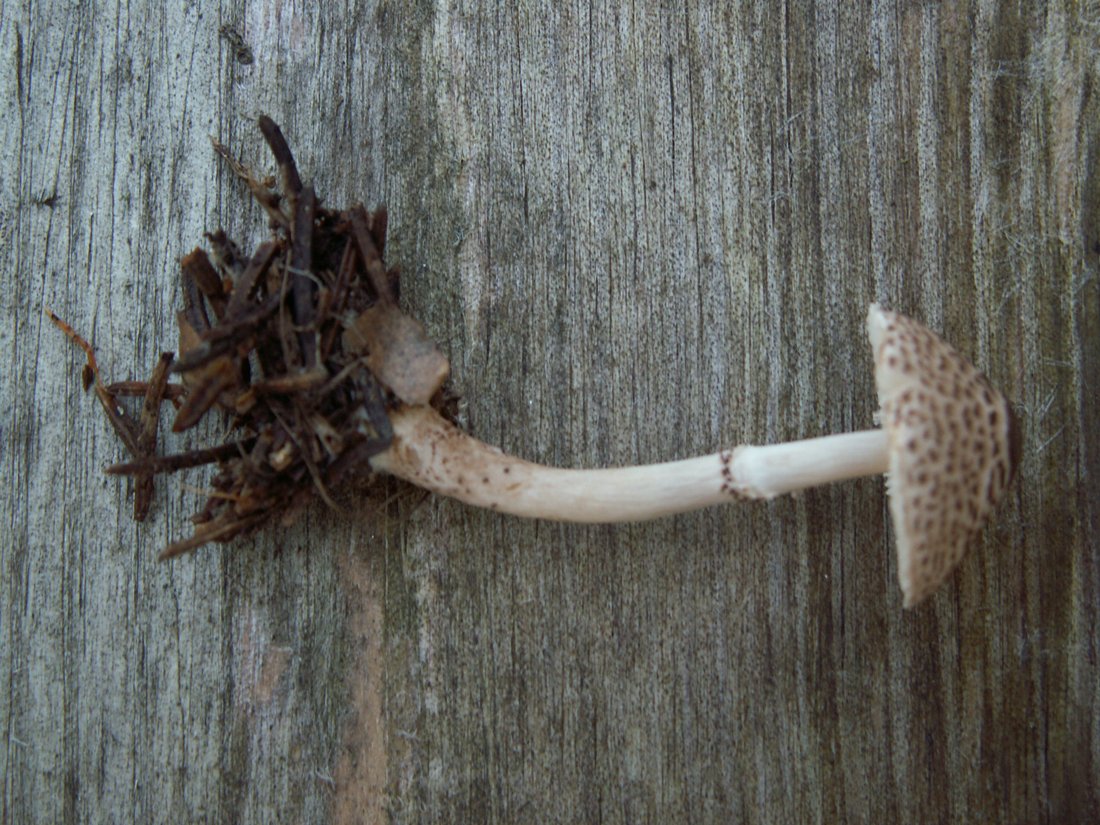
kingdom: Fungi
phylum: Basidiomycota
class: Agaricomycetes
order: Agaricales
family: Agaricaceae
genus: Lepiota
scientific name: Lepiota felina
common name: sortskællet parasolhat
